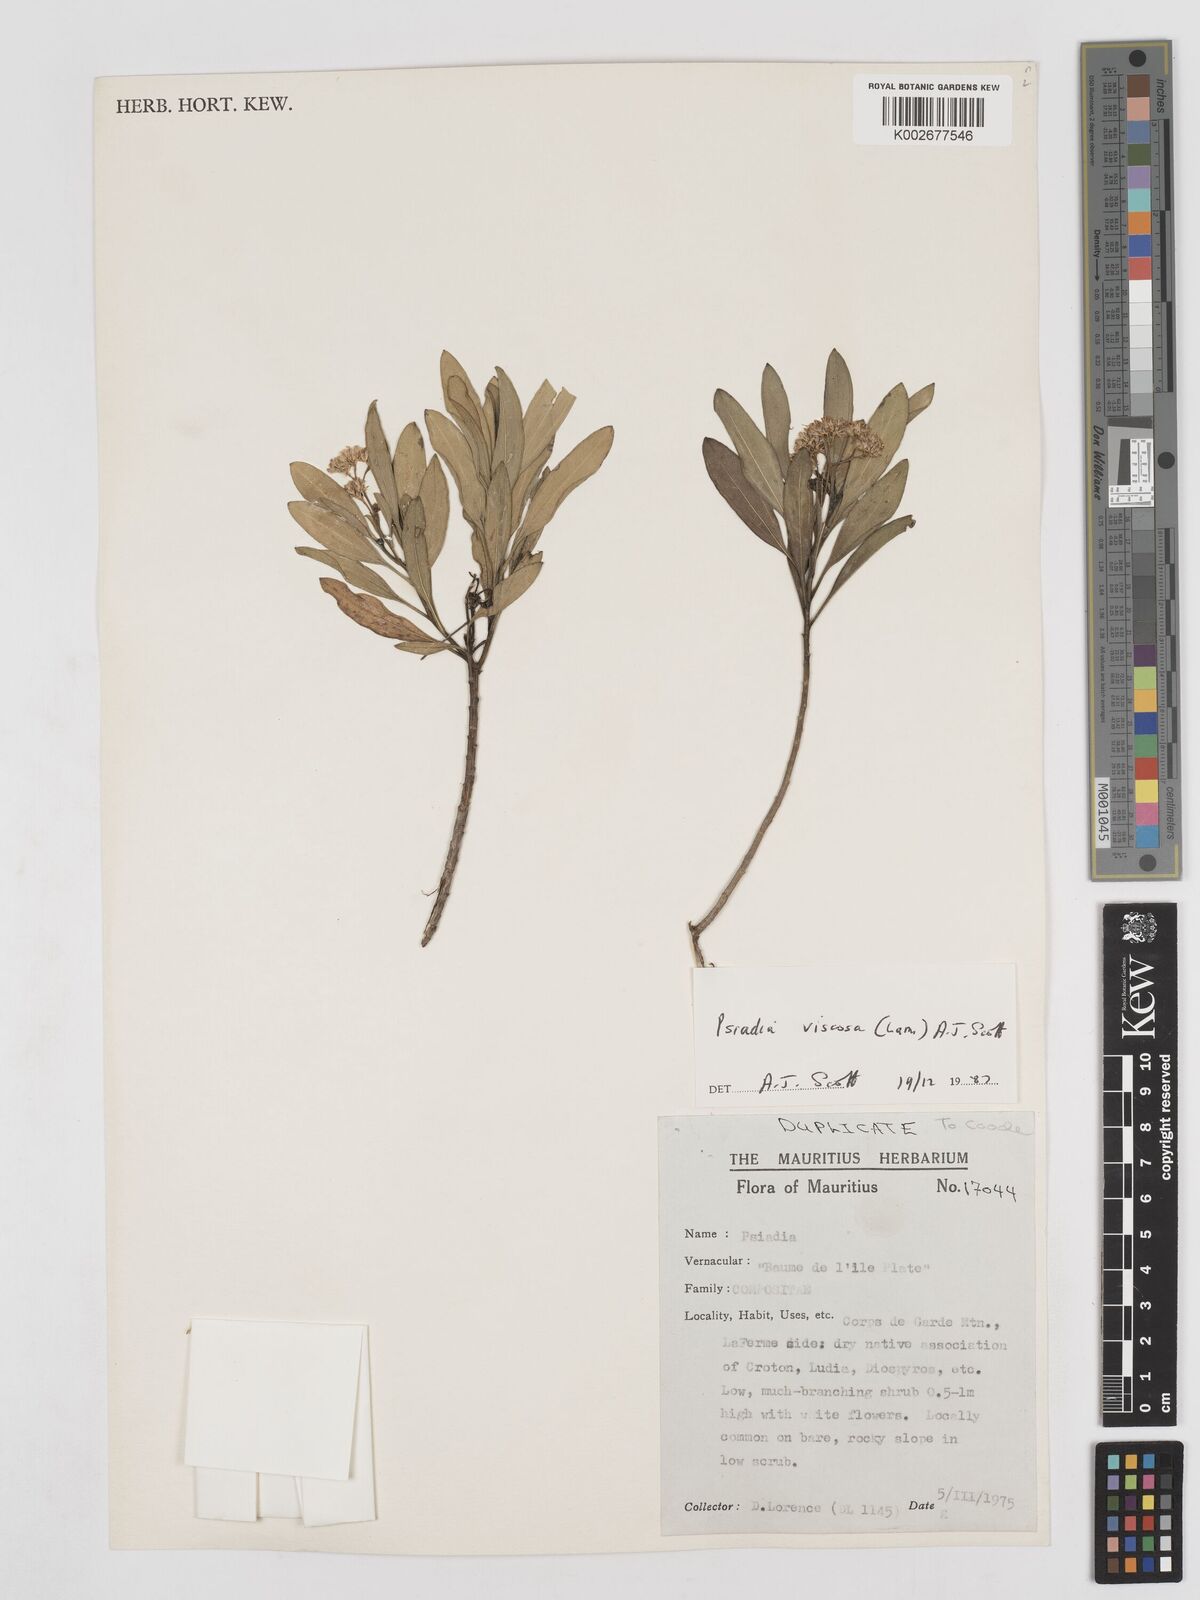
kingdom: Plantae
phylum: Tracheophyta
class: Magnoliopsida
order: Asterales
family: Asteraceae
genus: Psiadia
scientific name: Psiadia viscosa
